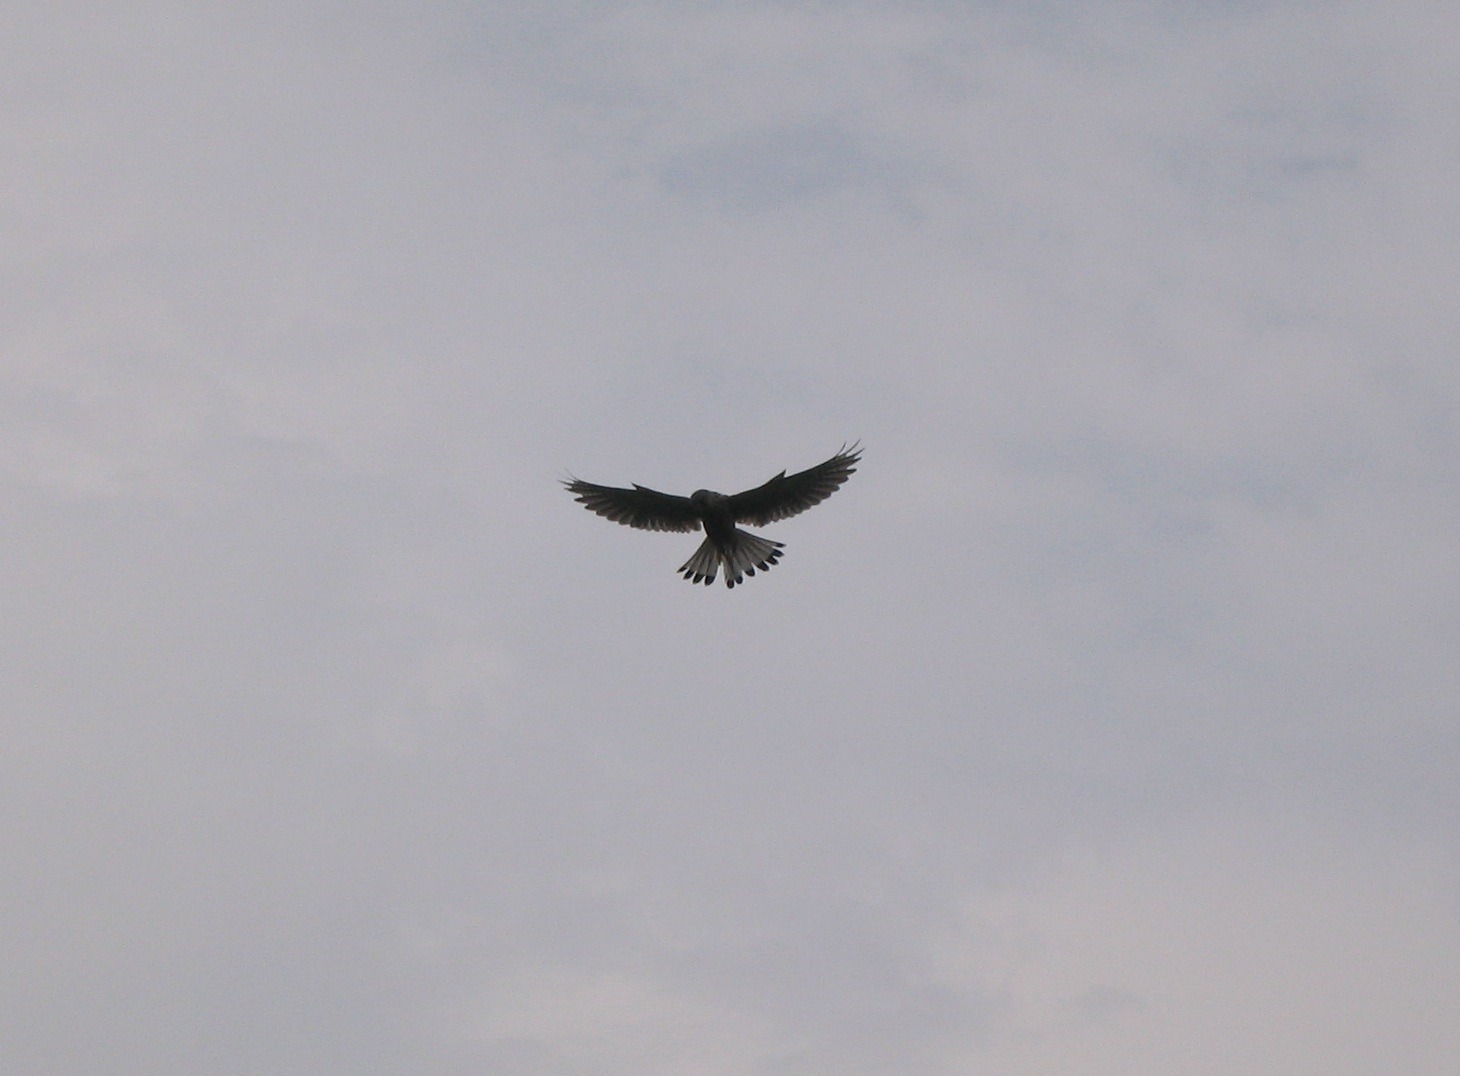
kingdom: Animalia
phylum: Chordata
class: Aves
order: Falconiformes
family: Falconidae
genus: Falco
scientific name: Falco tinnunculus
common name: Tårnfalk
